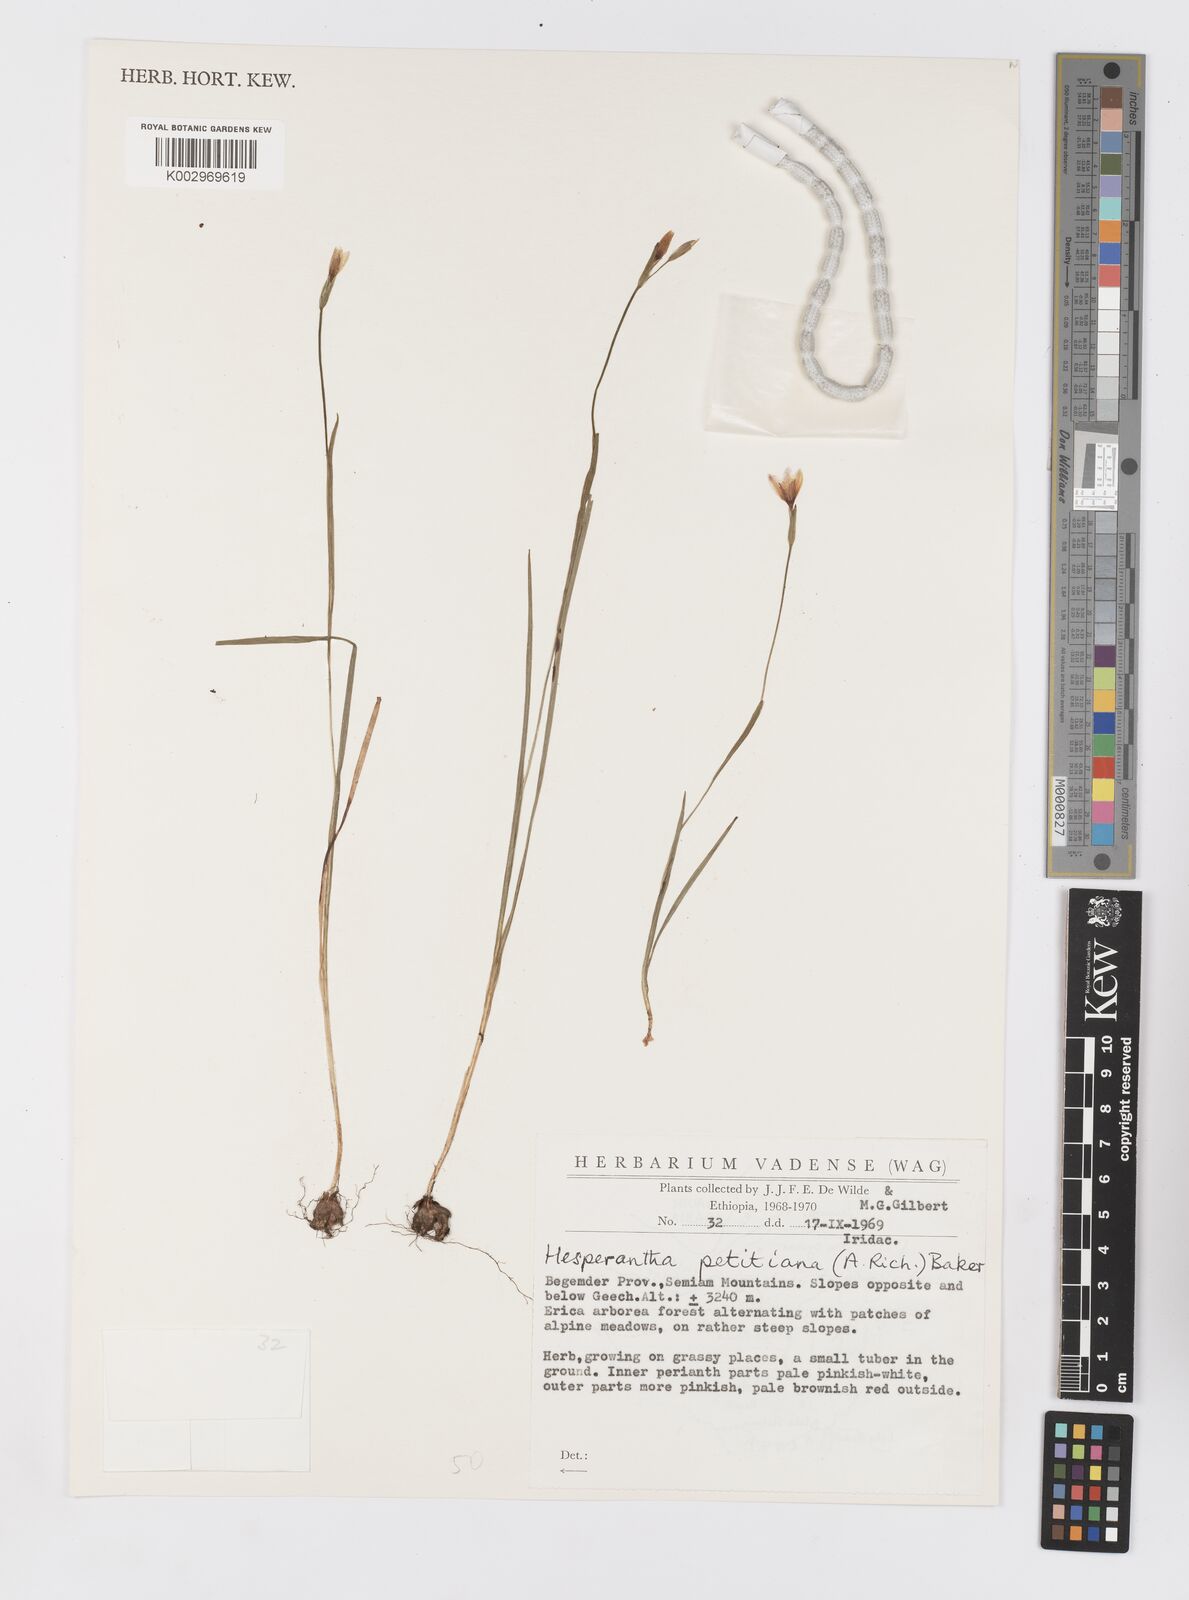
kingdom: Plantae
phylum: Tracheophyta
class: Liliopsida
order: Asparagales
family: Iridaceae
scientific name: Iridaceae
